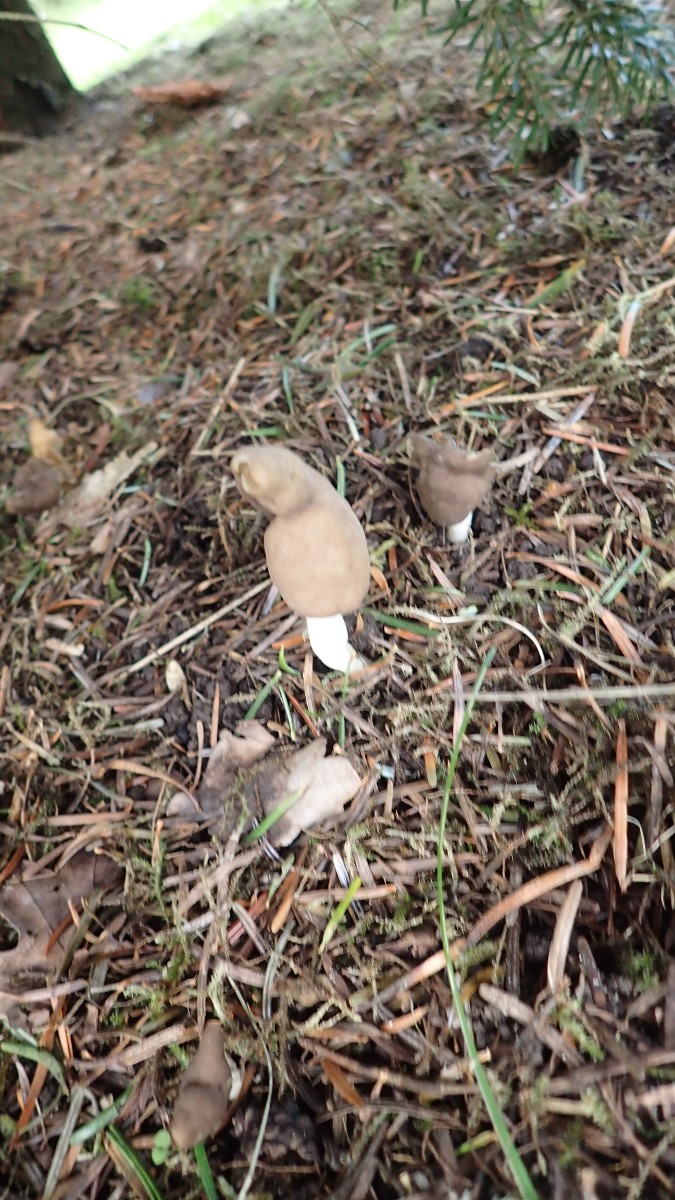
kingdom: Fungi
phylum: Ascomycota
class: Pezizomycetes
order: Pezizales
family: Helvellaceae
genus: Helvella
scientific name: Helvella elastica
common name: elastik-foldhat
